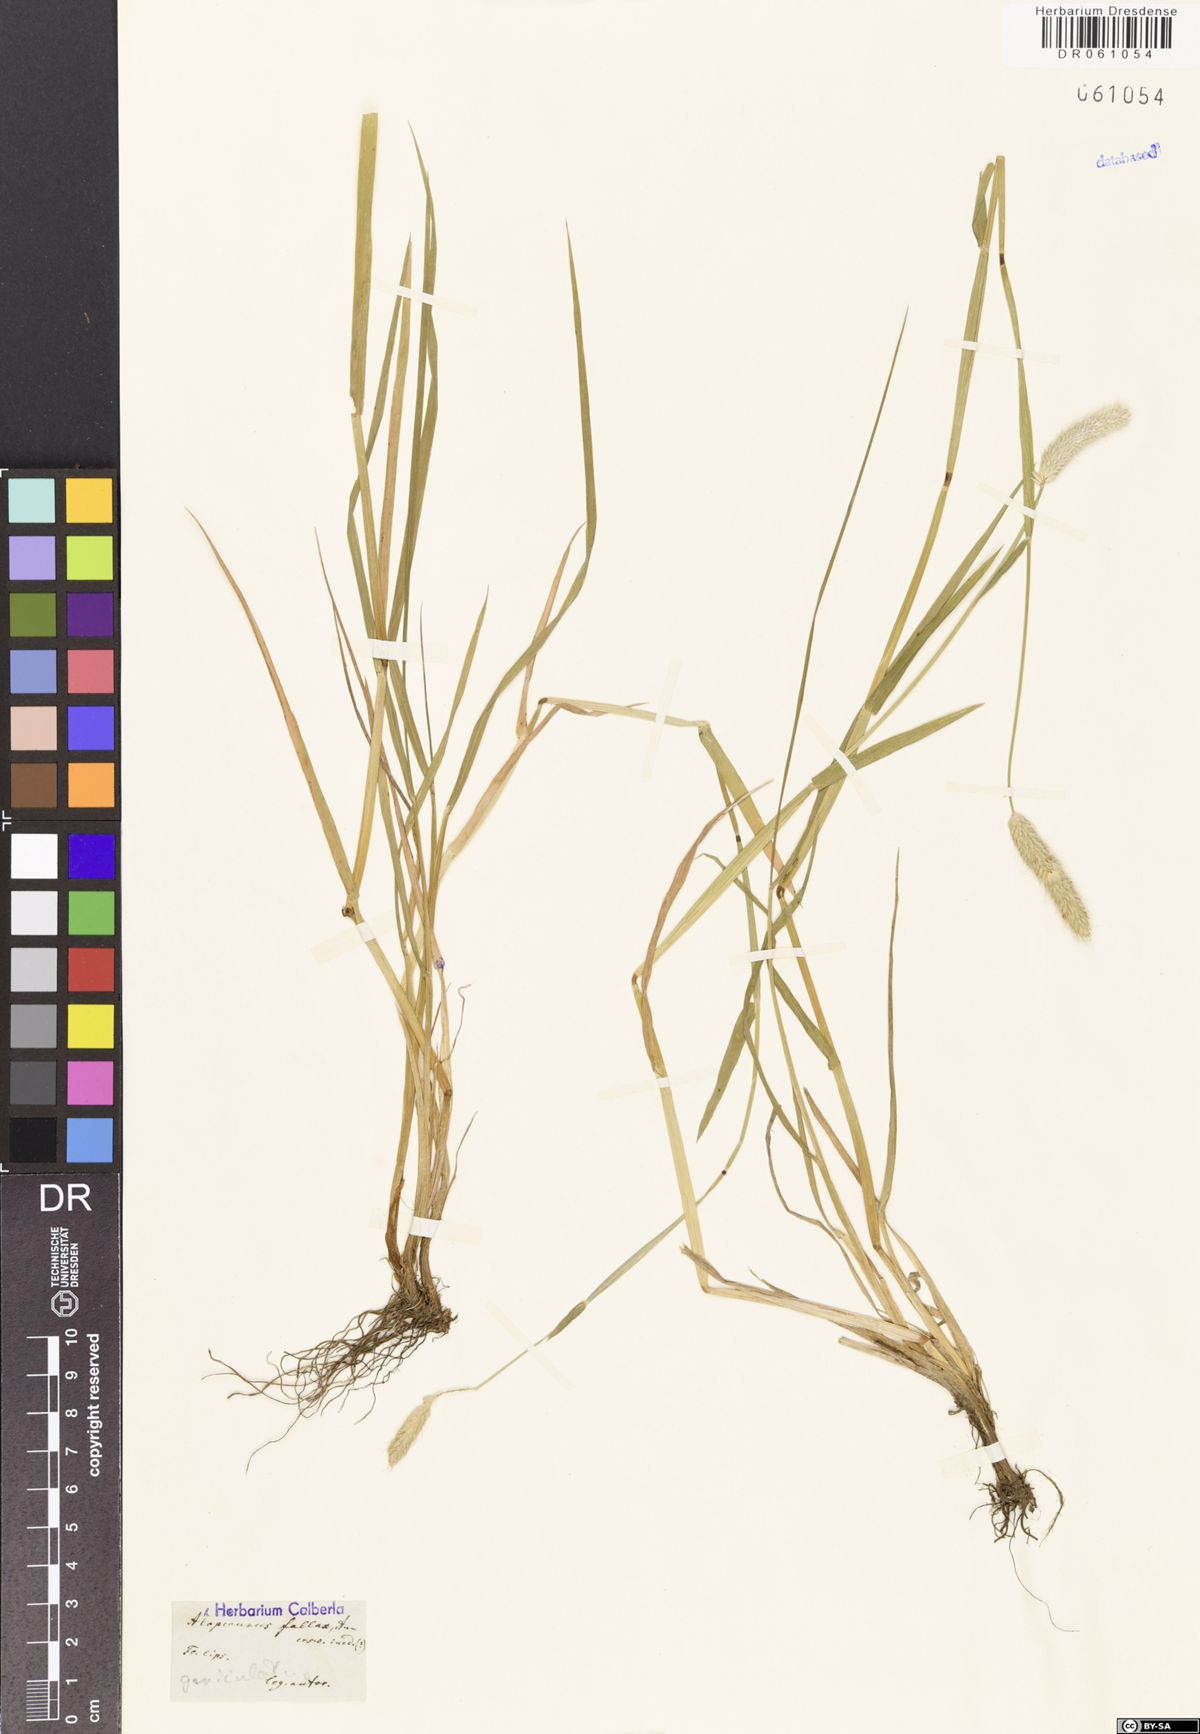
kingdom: Plantae
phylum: Tracheophyta
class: Liliopsida
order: Poales
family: Poaceae
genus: Alopecurus
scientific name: Alopecurus geniculatus
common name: Water foxtail
